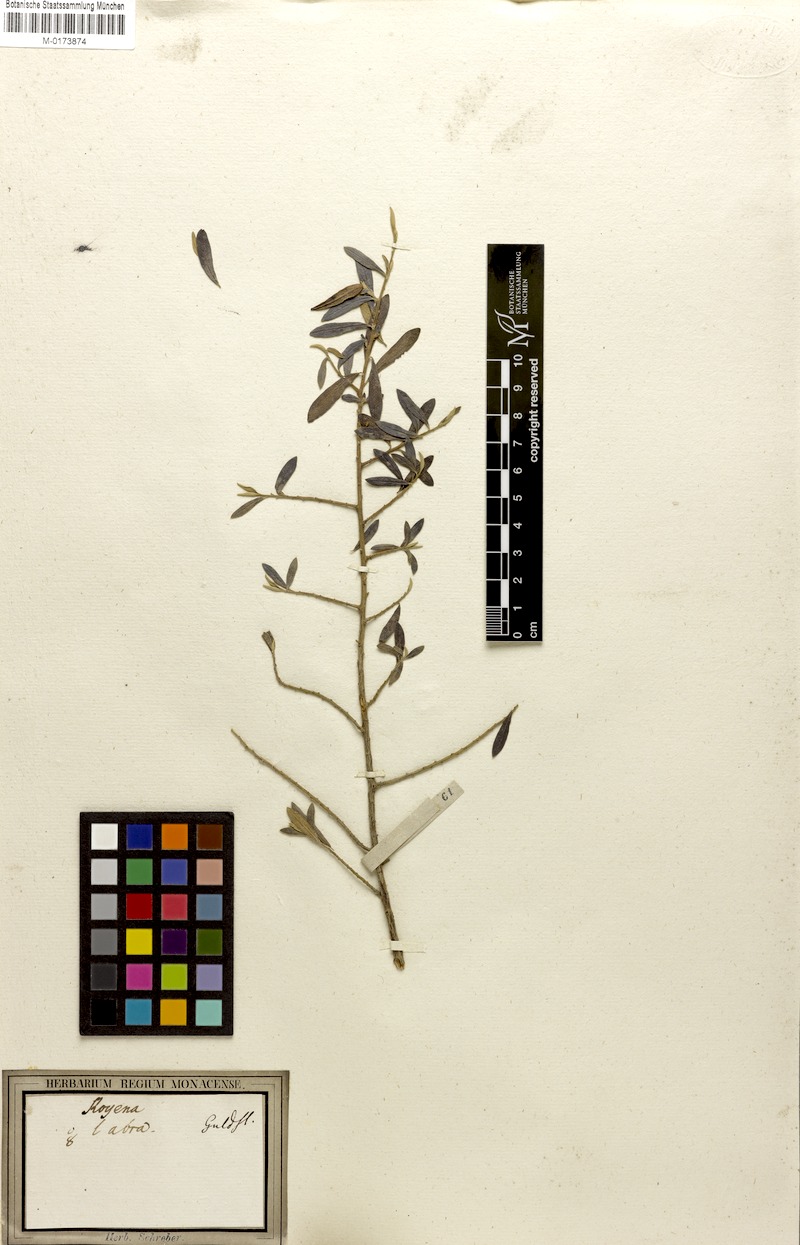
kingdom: Plantae
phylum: Tracheophyta
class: Magnoliopsida
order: Ericales
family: Ebenaceae
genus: Diospyros
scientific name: Diospyros glabra
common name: Fynbos star apple
